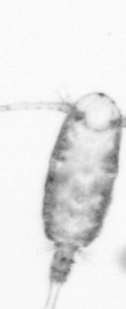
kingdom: Animalia
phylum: Arthropoda
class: Copepoda
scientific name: Copepoda
